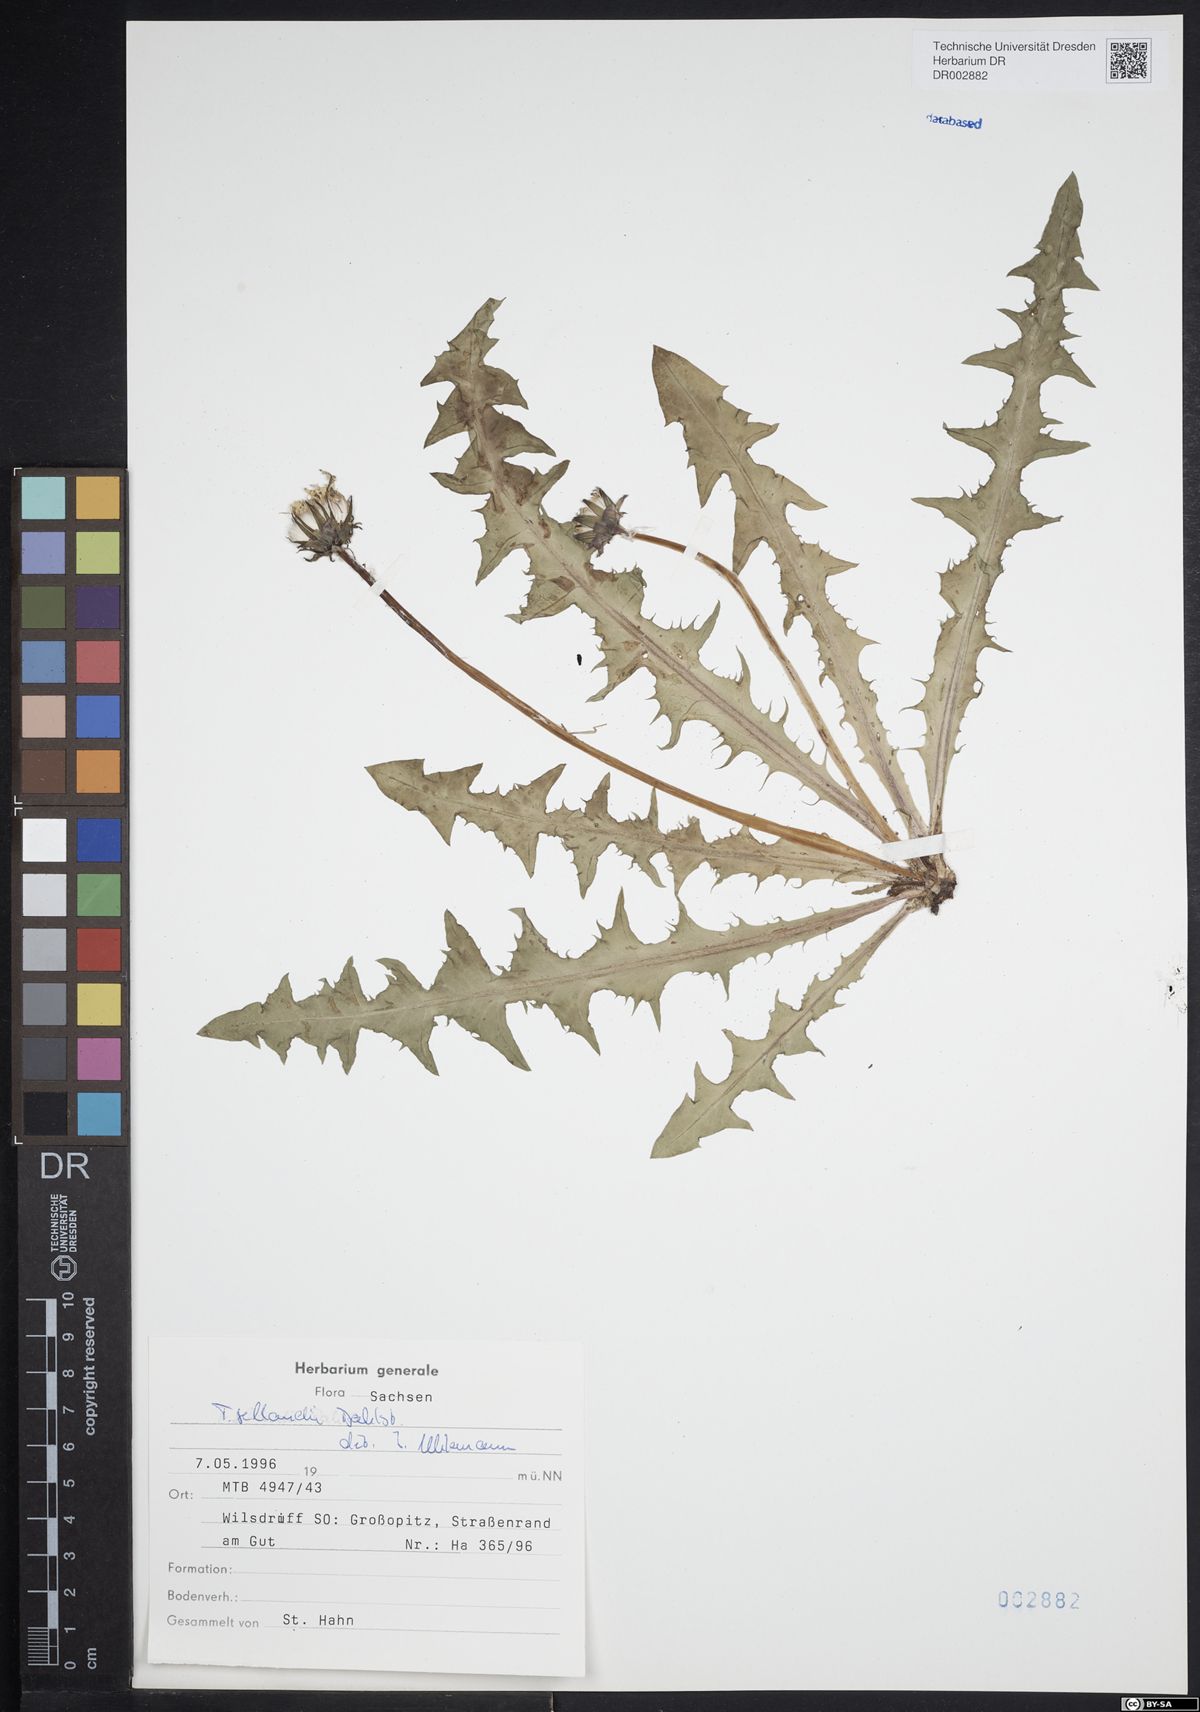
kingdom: Plantae
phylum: Tracheophyta
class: Magnoliopsida
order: Asterales
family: Asteraceae
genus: Taraxacum
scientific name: Taraxacum sellandii
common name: Selland's dandelion
